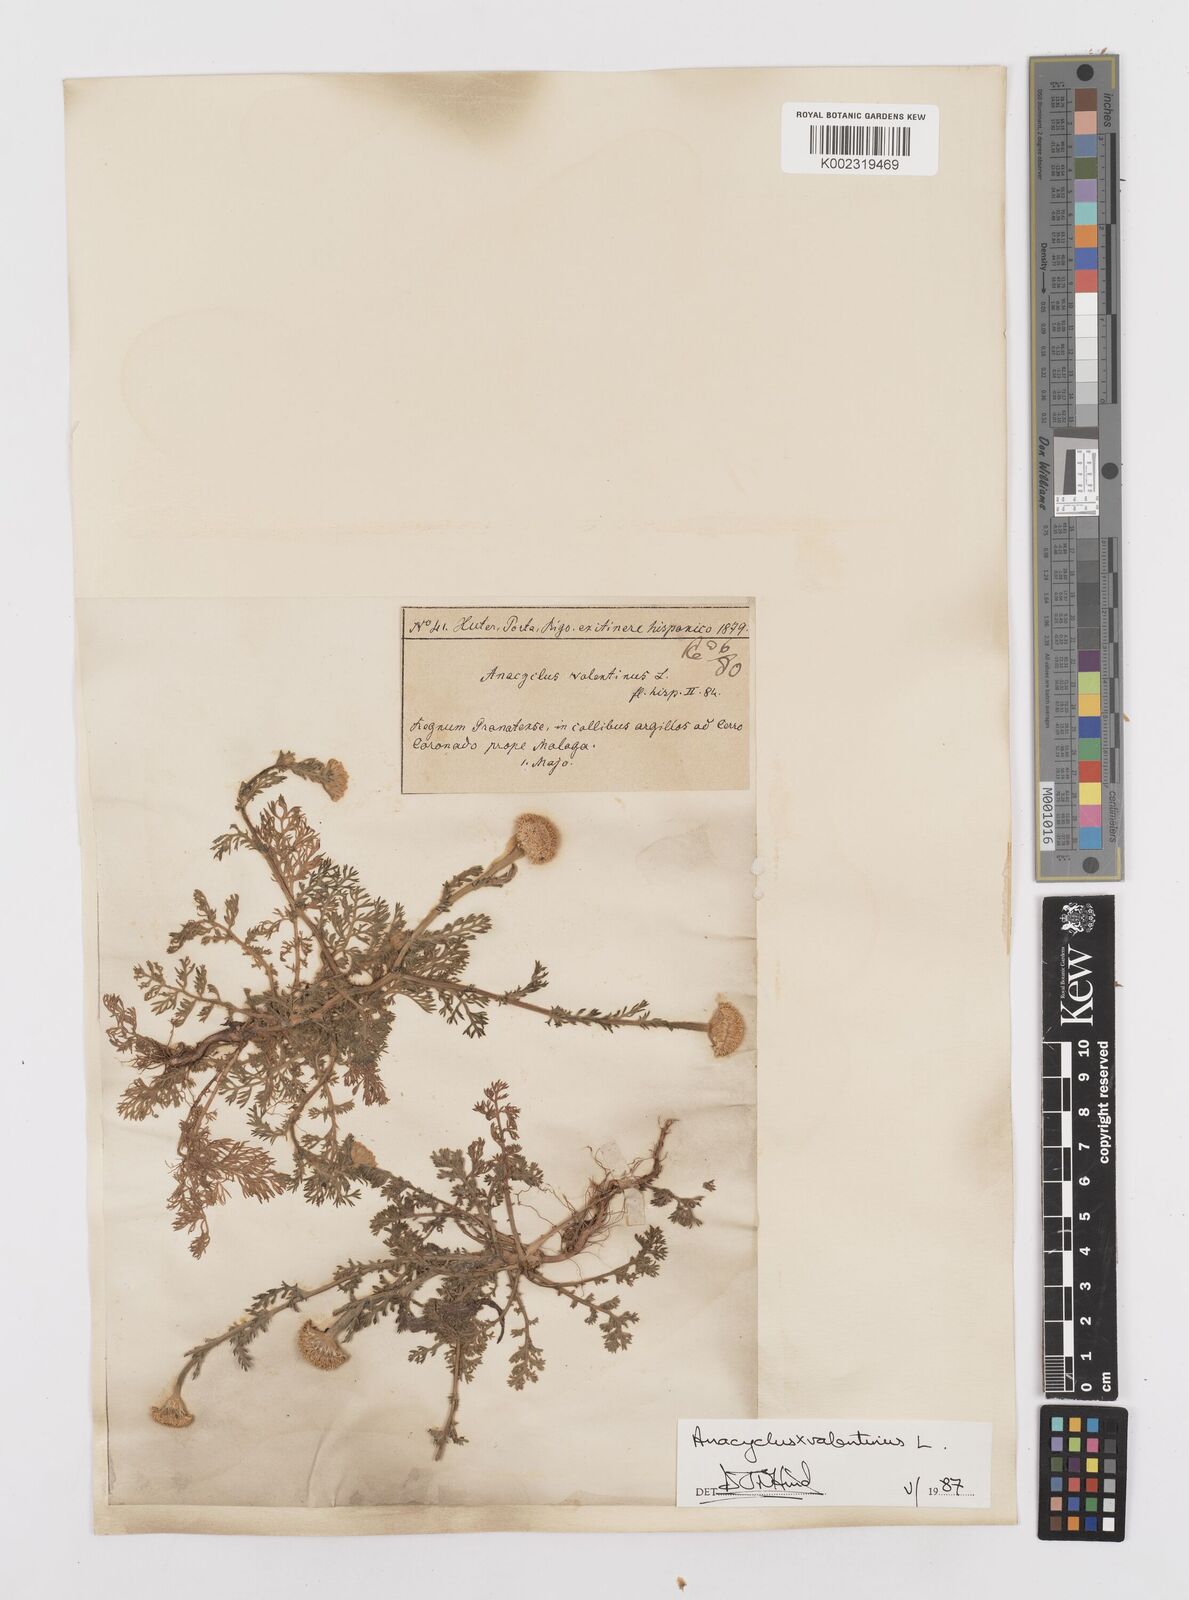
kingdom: Plantae
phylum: Tracheophyta
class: Magnoliopsida
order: Asterales
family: Asteraceae
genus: Anacyclus
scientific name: Anacyclus valentinus
